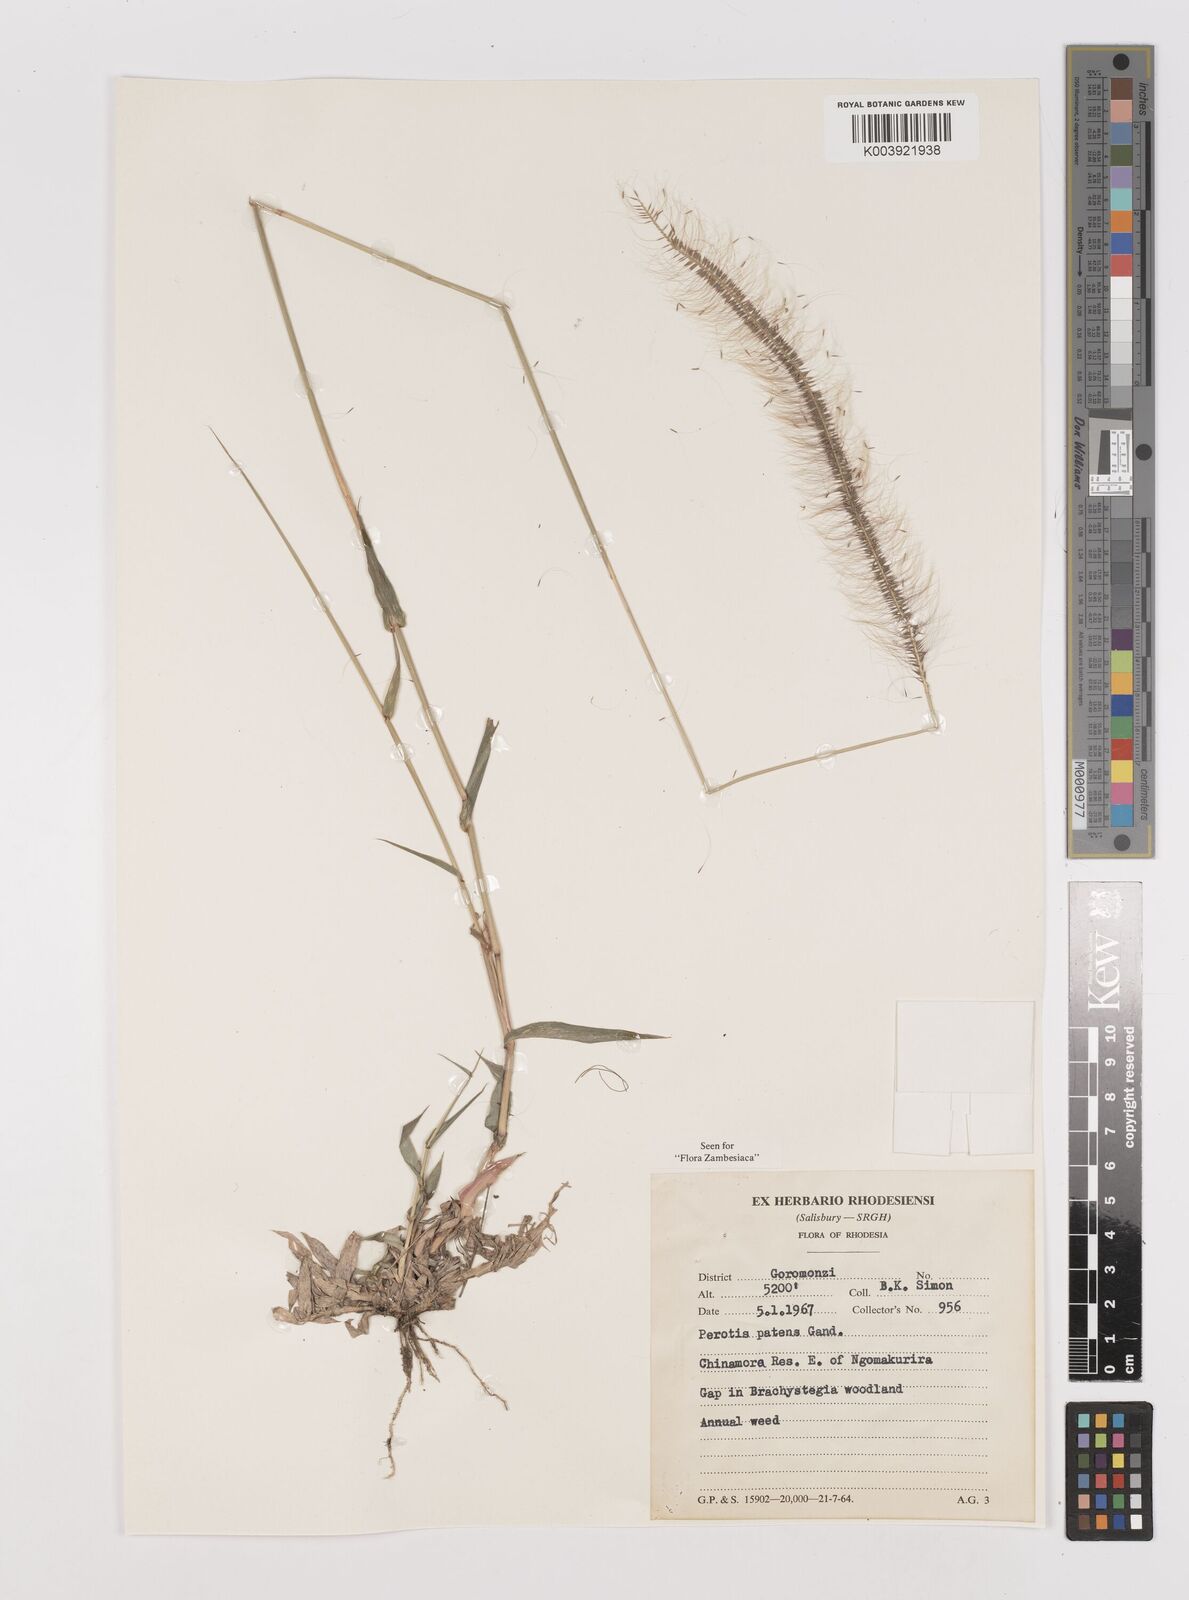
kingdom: Plantae
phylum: Tracheophyta
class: Liliopsida
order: Poales
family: Poaceae
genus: Perotis
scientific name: Perotis patens
